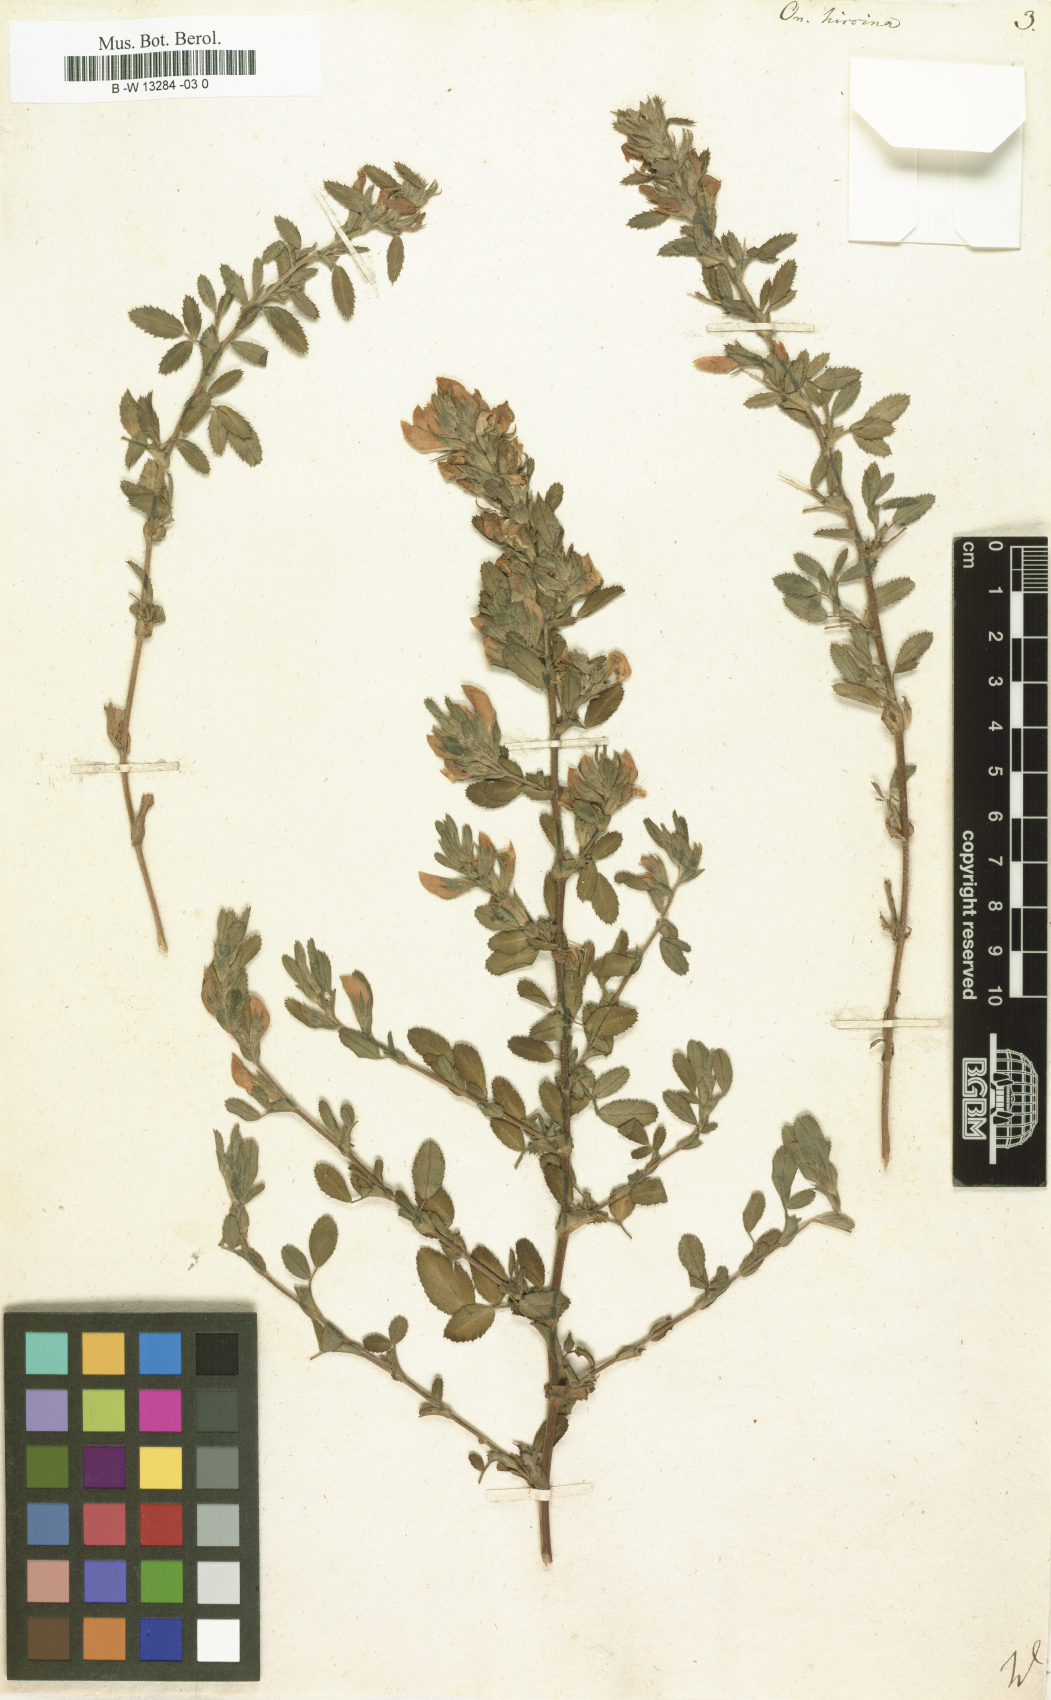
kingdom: Plantae
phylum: Tracheophyta
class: Magnoliopsida
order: Fabales
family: Fabaceae
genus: Ononis
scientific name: Ononis arvensis
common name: Field restharrow
